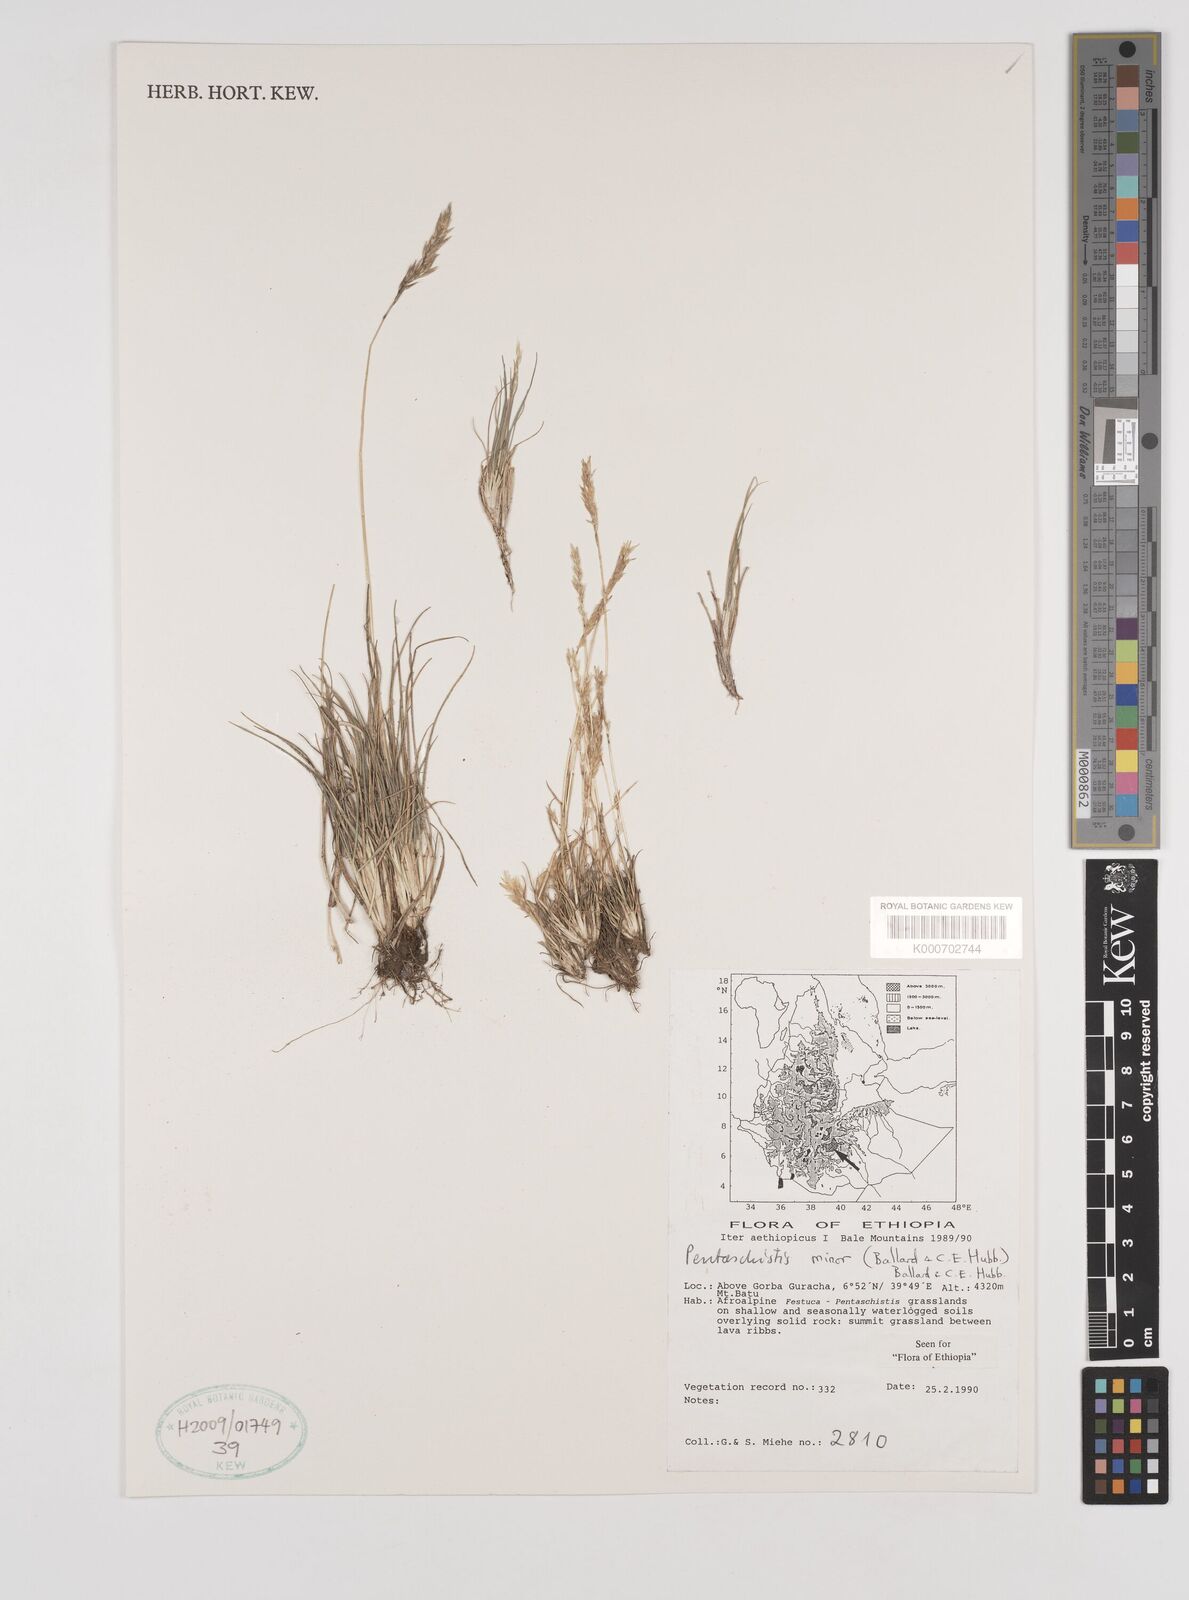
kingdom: Plantae
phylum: Tracheophyta
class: Liliopsida
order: Poales
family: Poaceae
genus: Pentameris
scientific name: Pentameris minor
